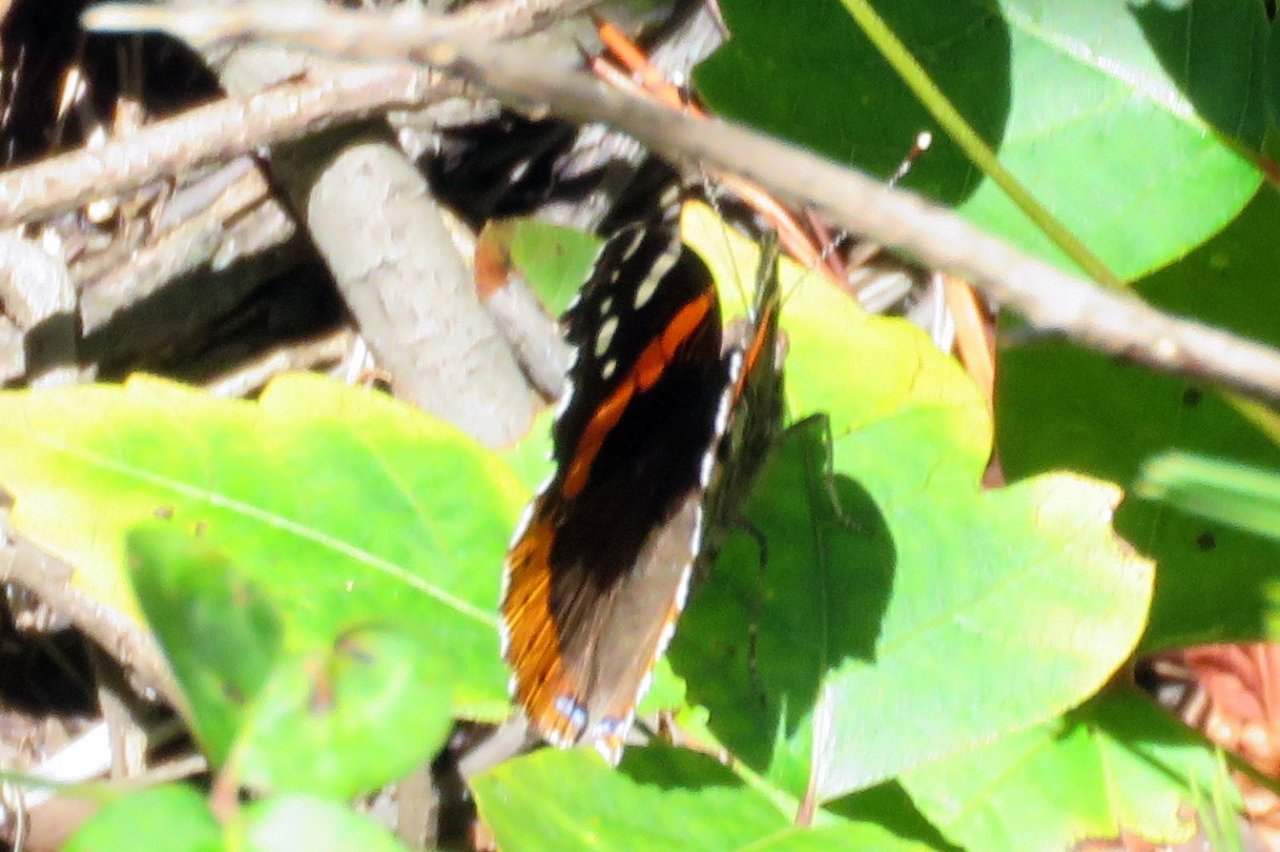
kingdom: Animalia
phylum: Arthropoda
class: Insecta
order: Lepidoptera
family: Nymphalidae
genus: Vanessa
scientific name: Vanessa atalanta
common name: Red Admiral
